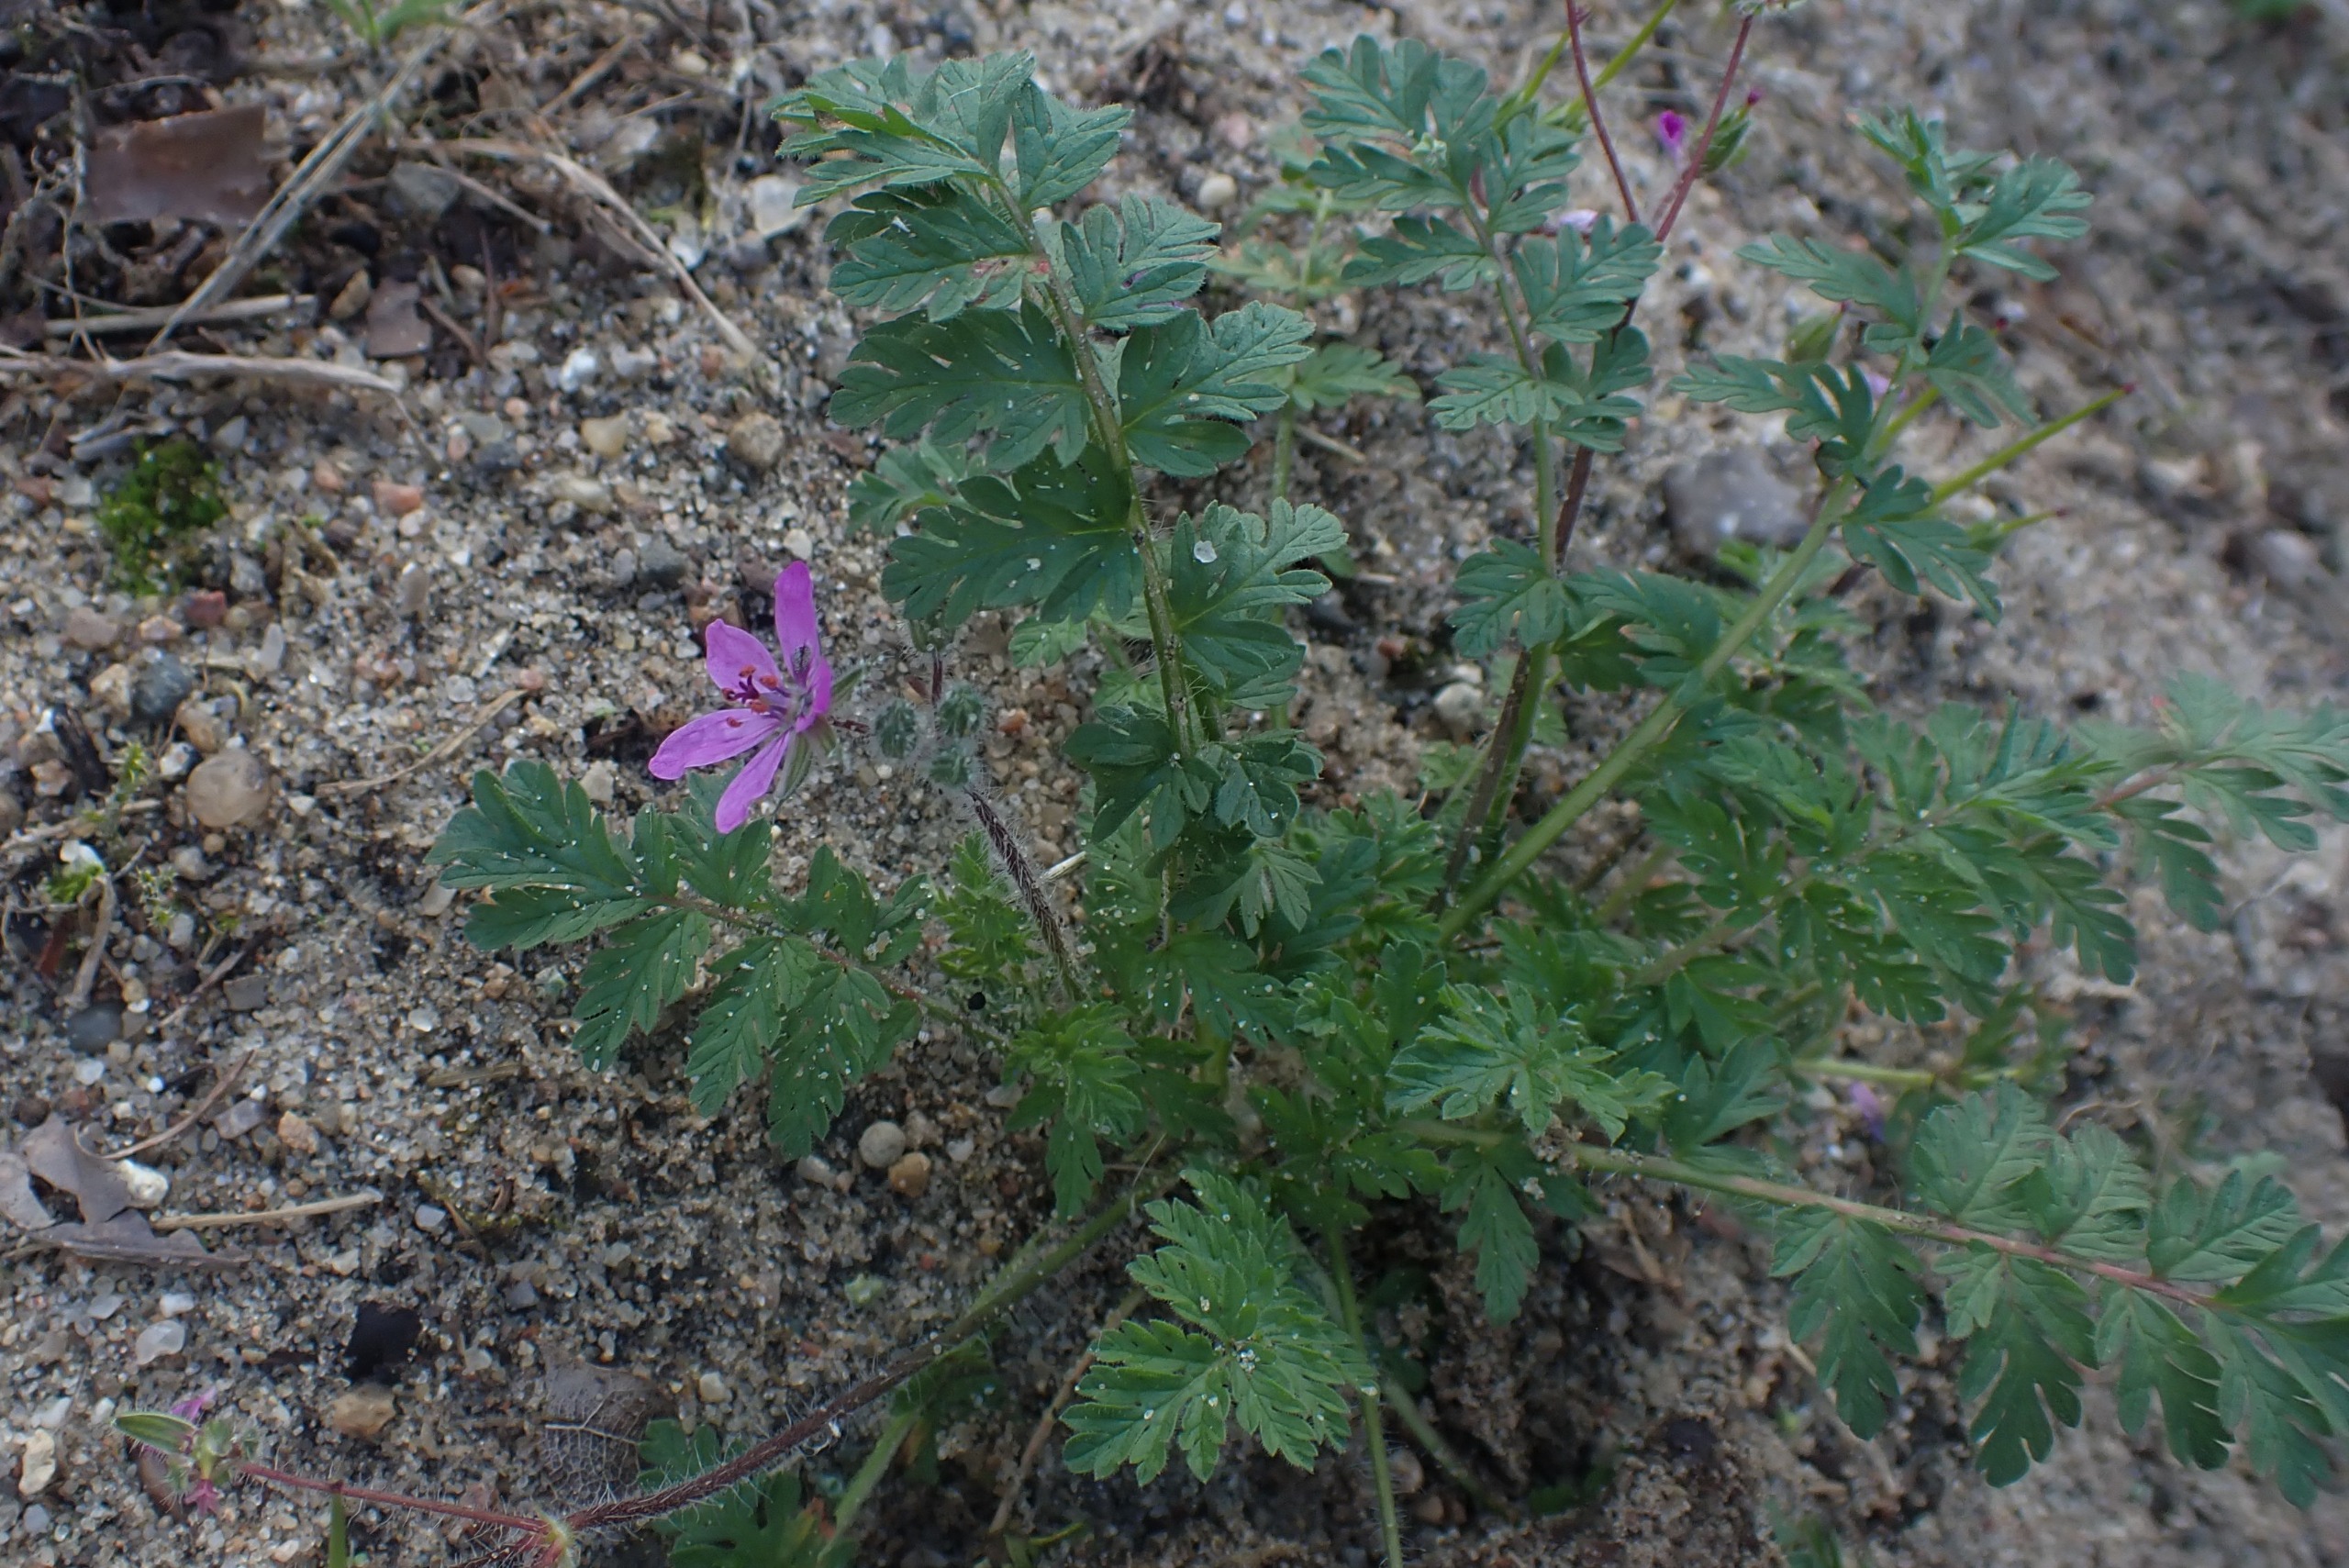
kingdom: Plantae
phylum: Tracheophyta
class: Magnoliopsida
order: Geraniales
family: Geraniaceae
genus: Erodium
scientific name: Erodium cicutarium
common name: Hejrenæb
